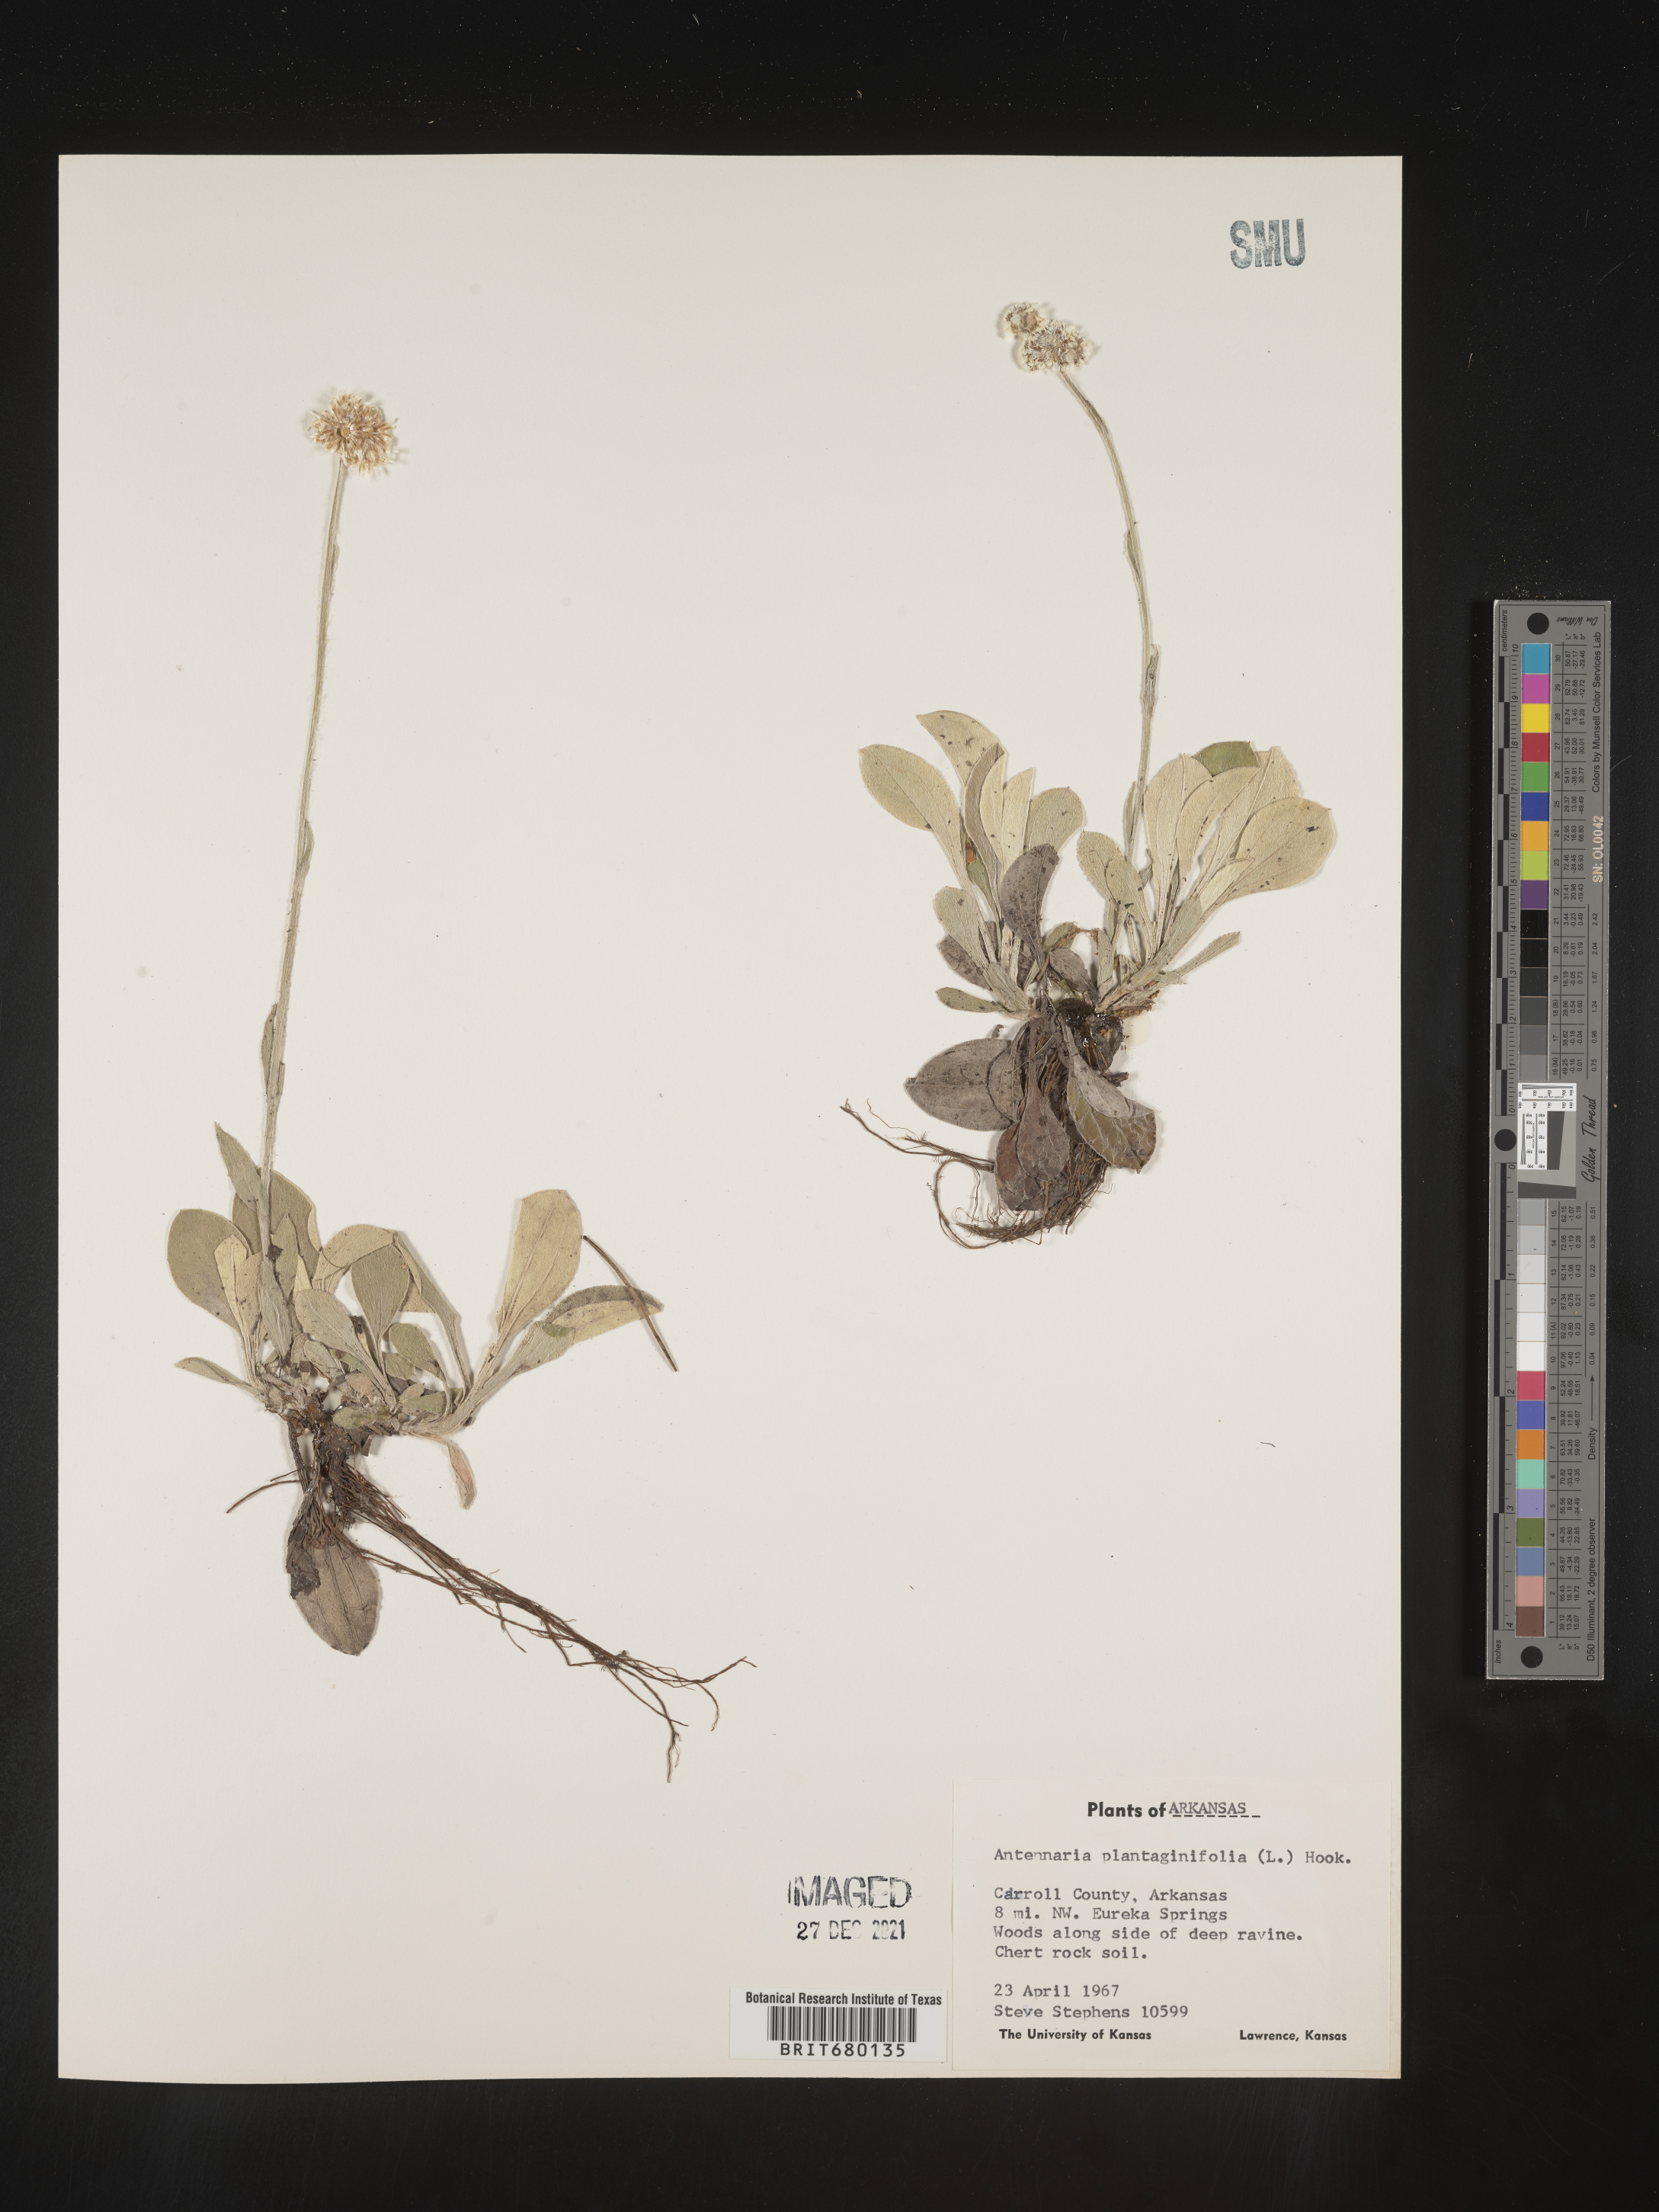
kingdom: Plantae
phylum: Tracheophyta
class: Magnoliopsida
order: Asterales
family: Asteraceae
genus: Antennaria
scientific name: Antennaria plantaginifolia
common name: Plantain-leaved pussytoes
